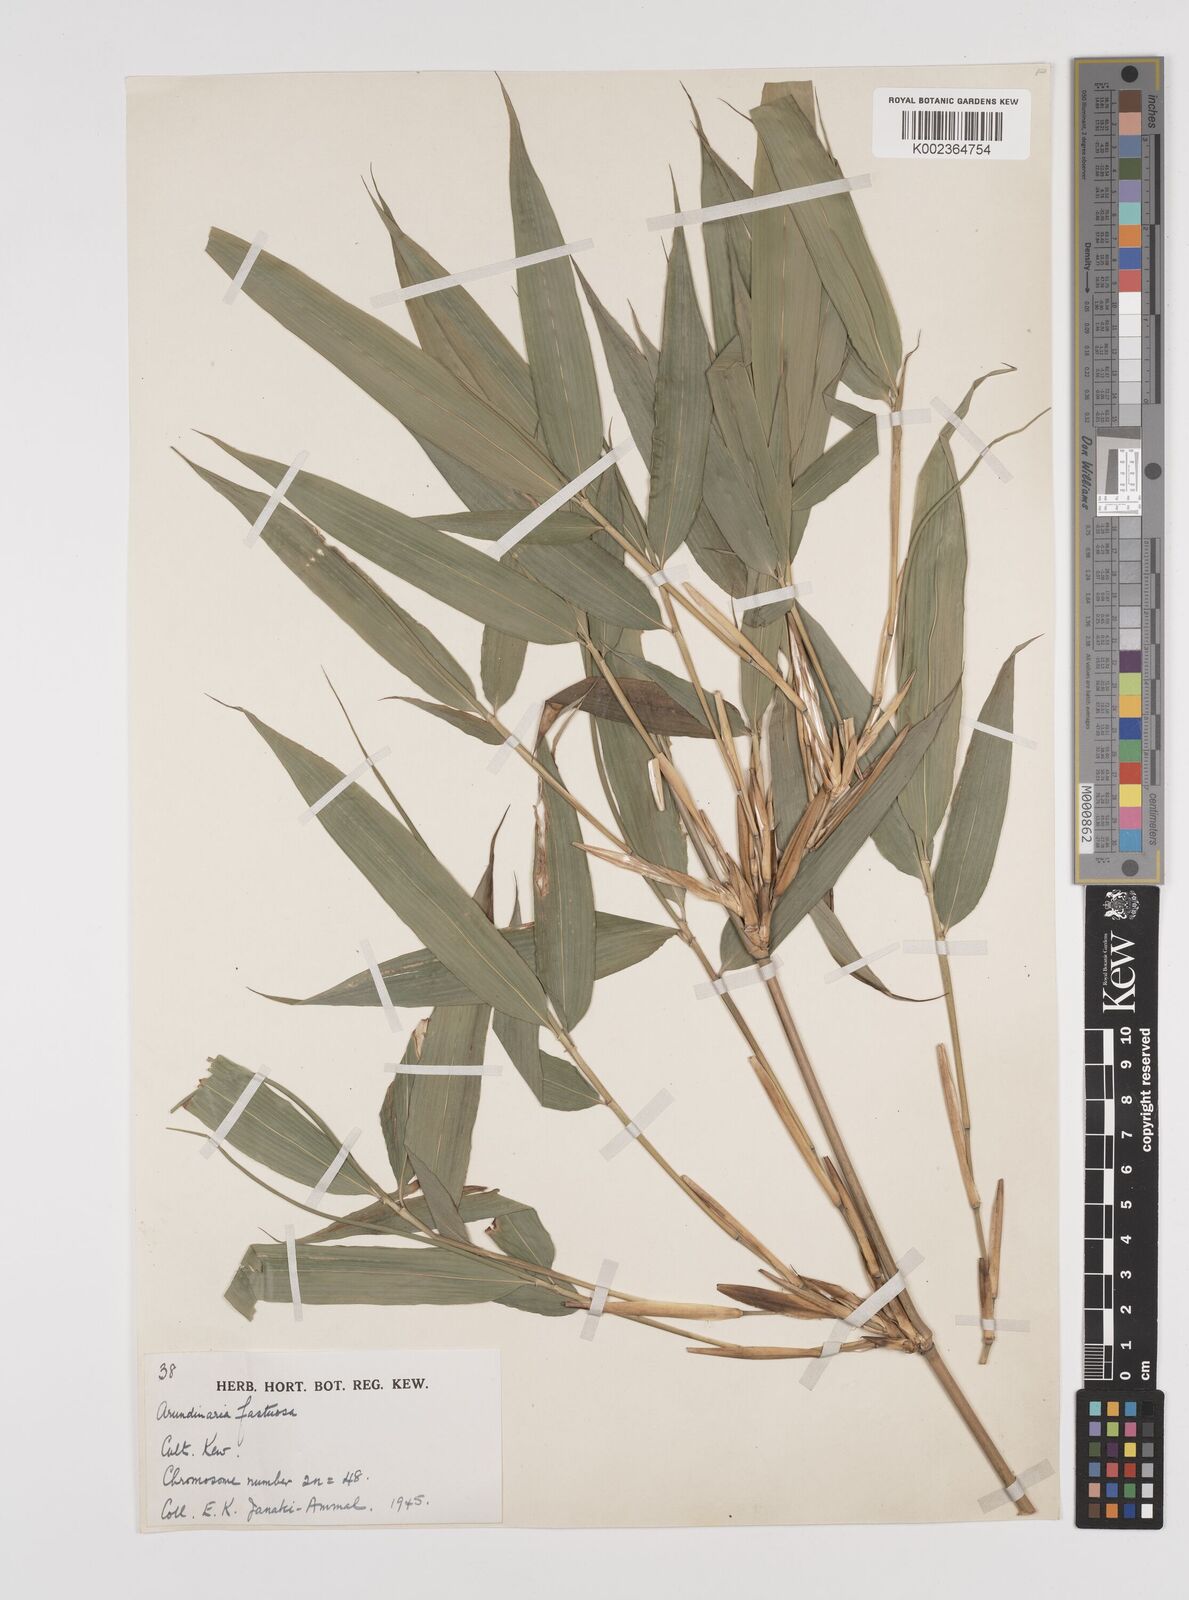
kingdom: Plantae
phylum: Tracheophyta
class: Liliopsida
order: Poales
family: Poaceae
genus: Semiarundinaria
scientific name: Semiarundinaria fastuosa
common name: Narihira bamboo
